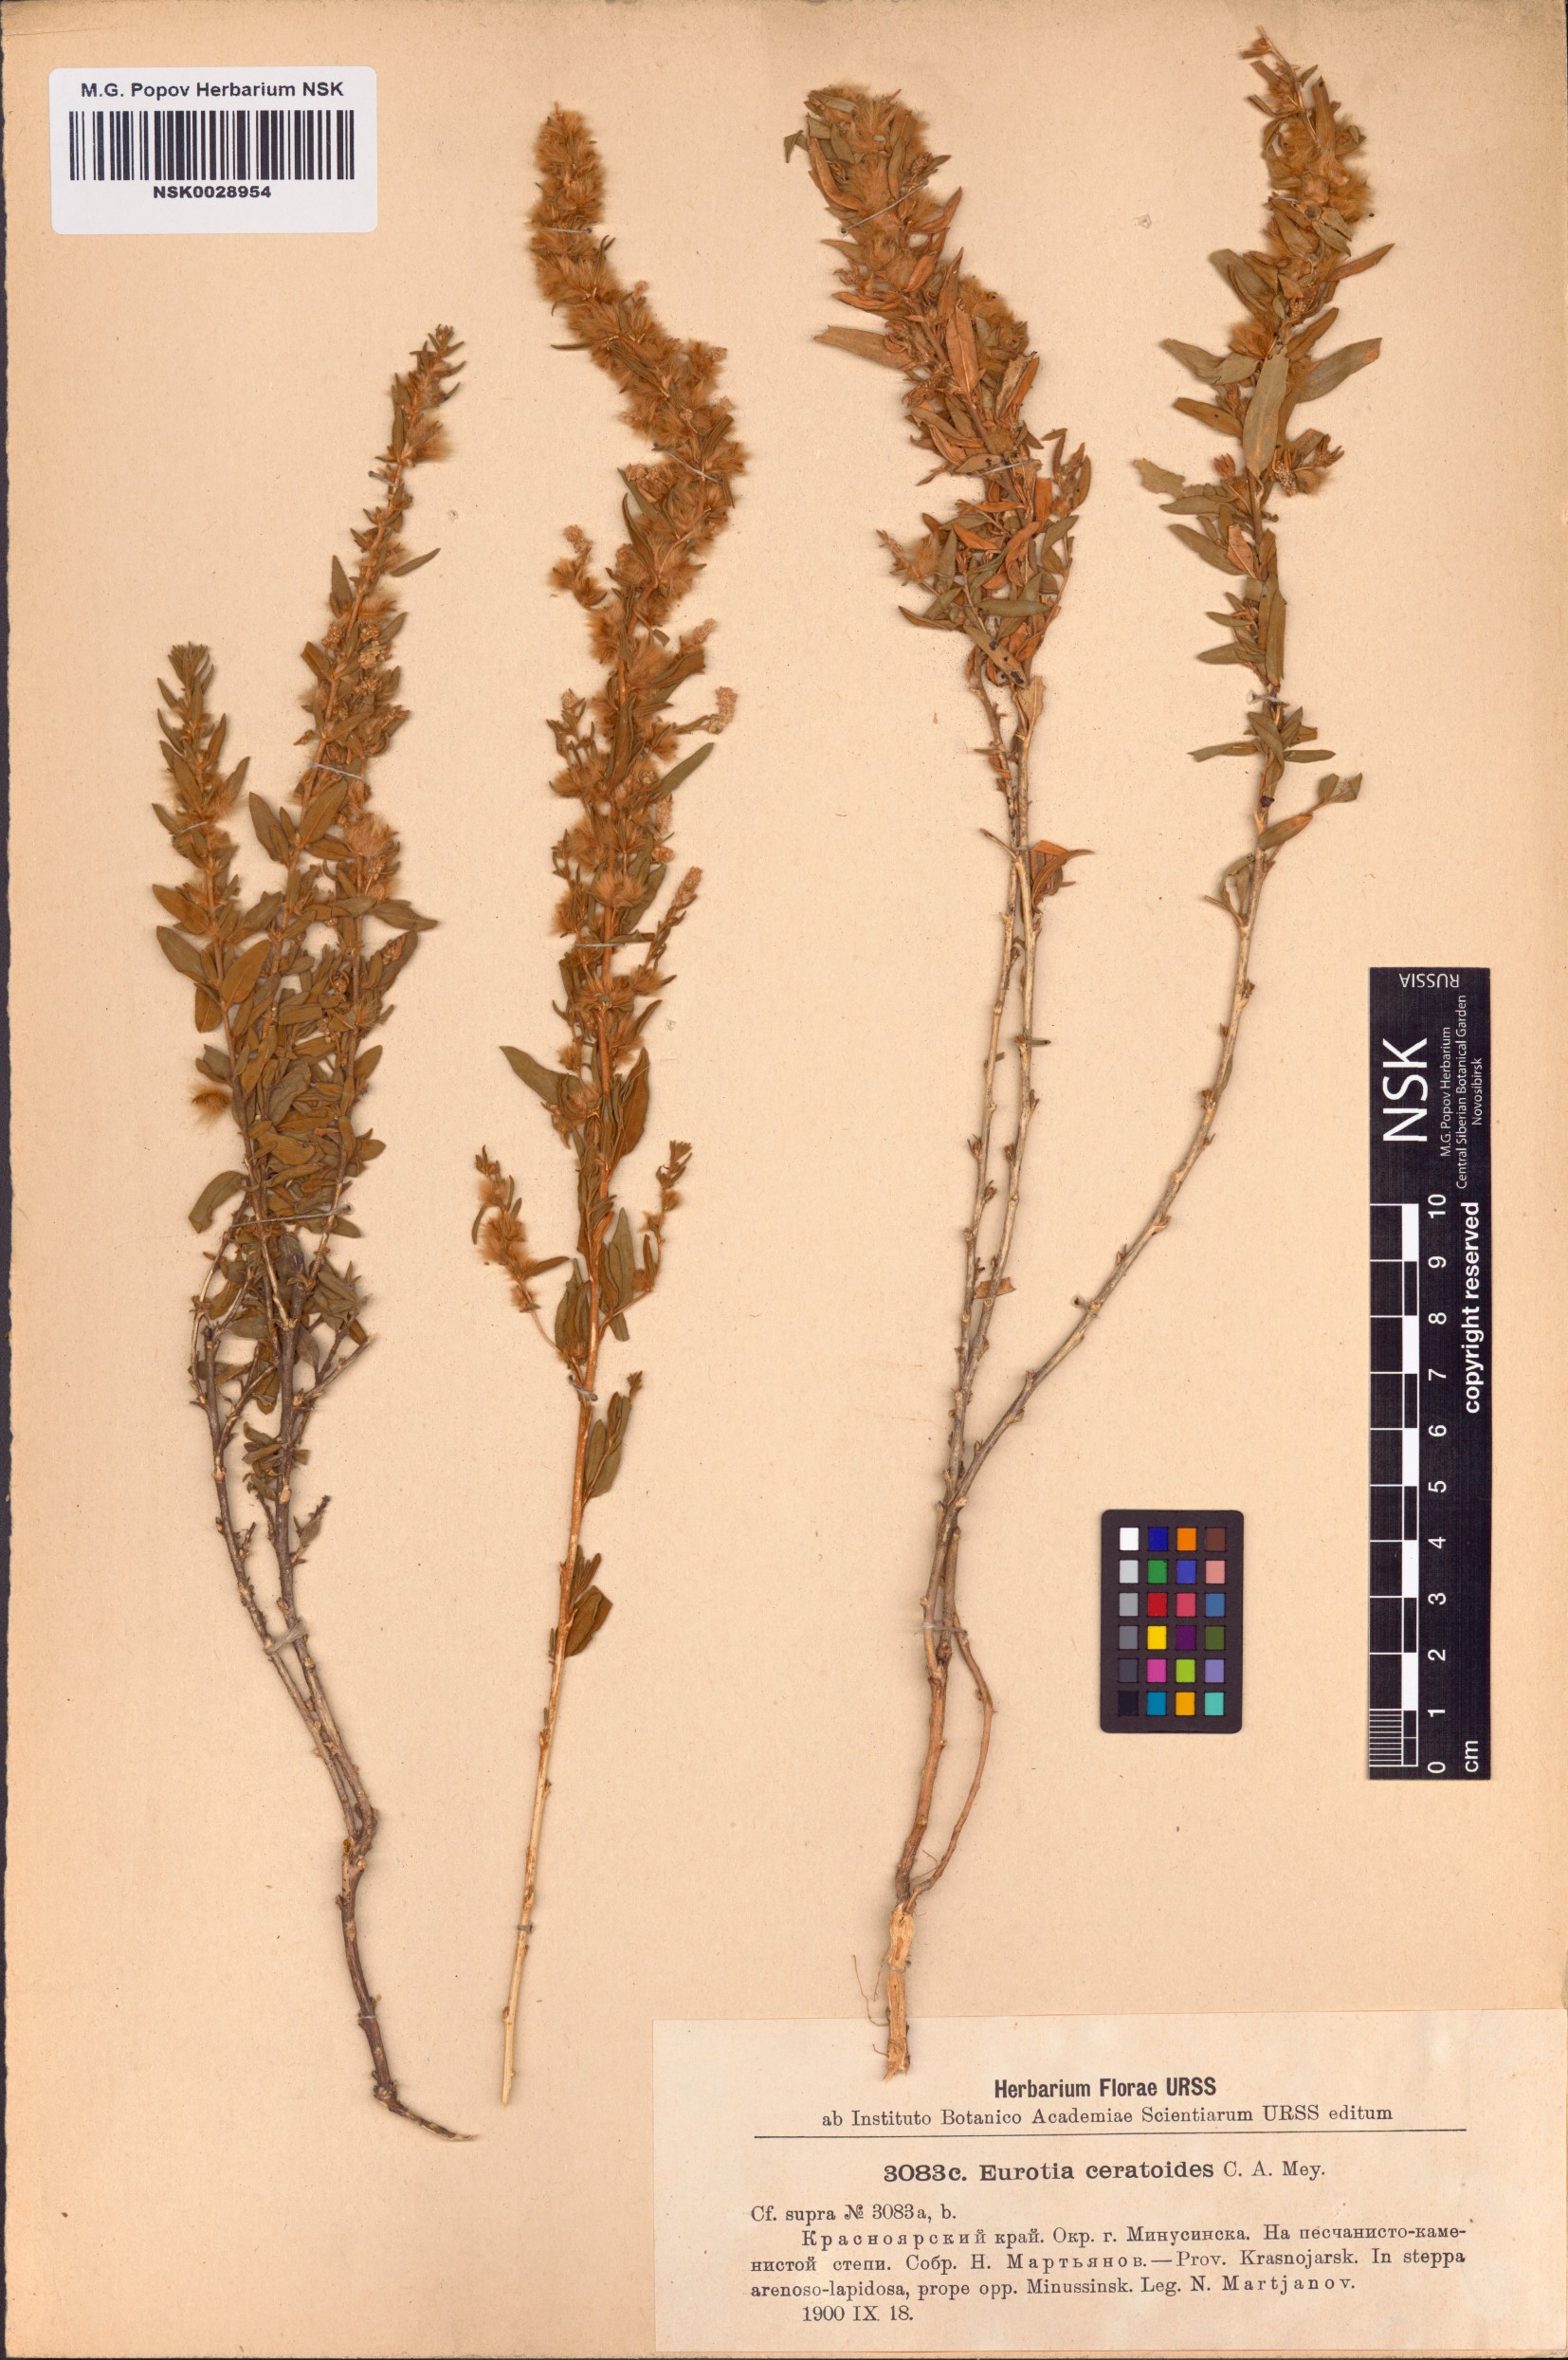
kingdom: Plantae
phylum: Tracheophyta
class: Magnoliopsida
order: Caryophyllales
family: Amaranthaceae
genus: Krascheninnikovia
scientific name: Krascheninnikovia ceratoides
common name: Pamirian winterfat
